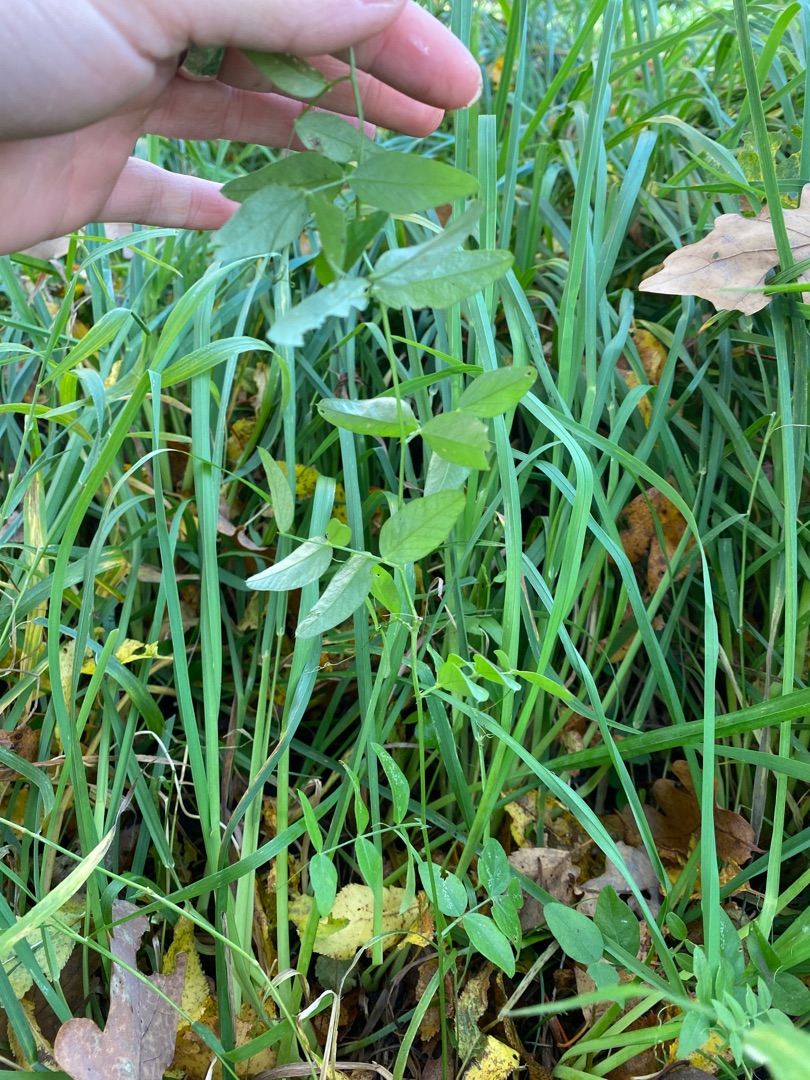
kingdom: Plantae
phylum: Tracheophyta
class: Magnoliopsida
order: Fabales
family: Fabaceae
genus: Vicia
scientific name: Vicia sepium
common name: Gærde-vikke
